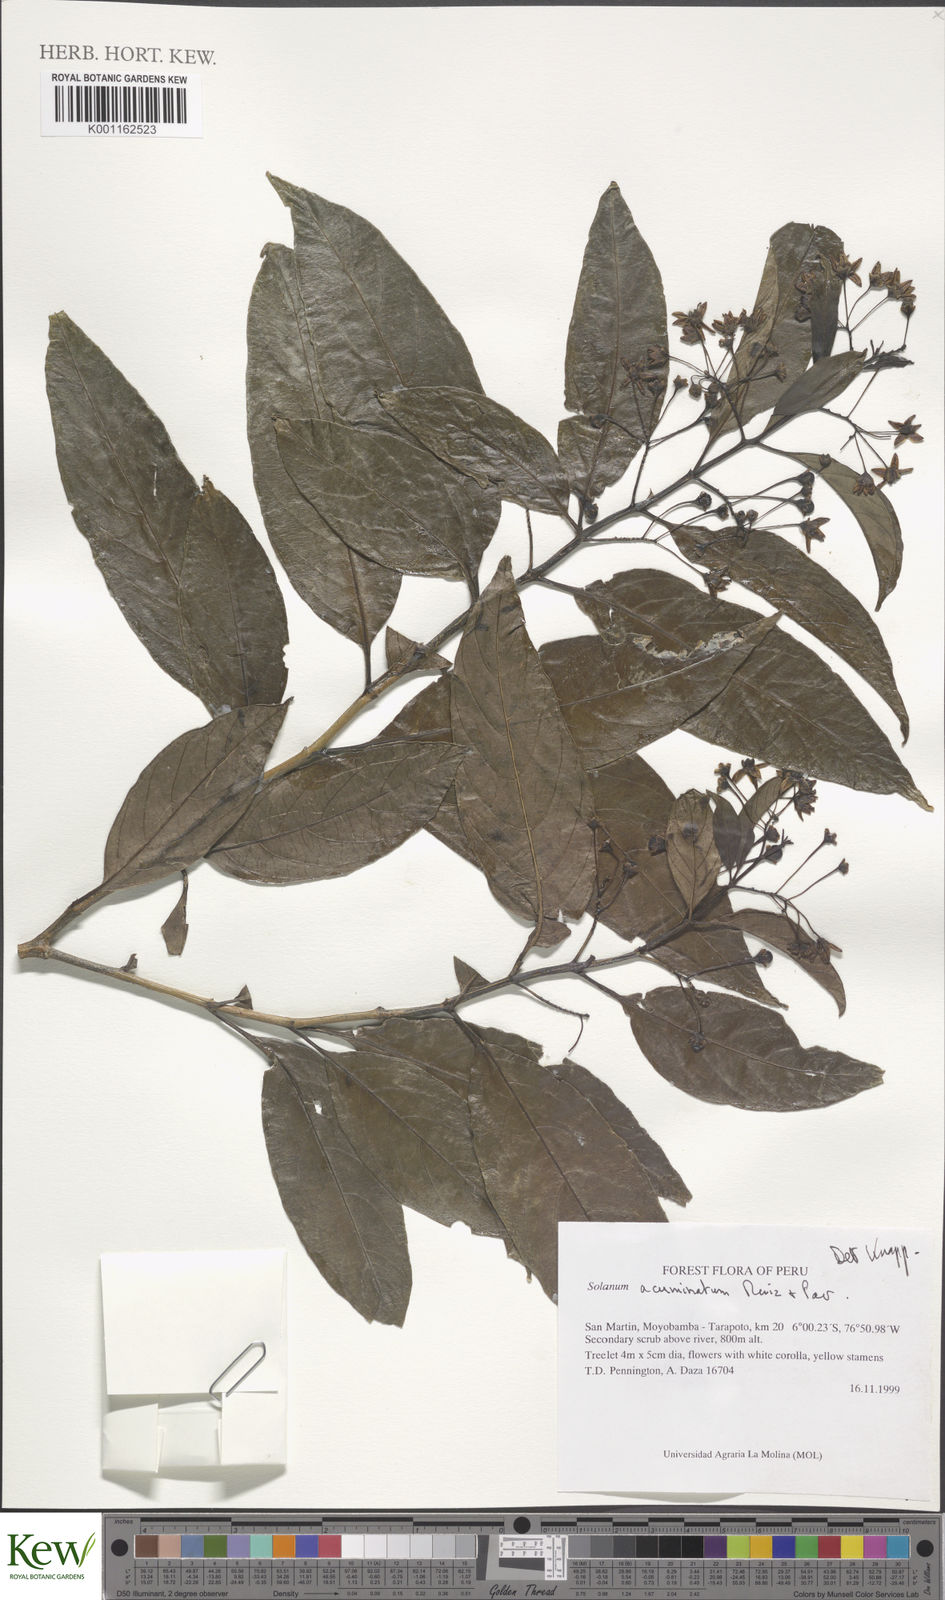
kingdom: Plantae
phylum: Tracheophyta
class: Magnoliopsida
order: Solanales
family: Solanaceae
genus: Solanum
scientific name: Solanum acuminatum
